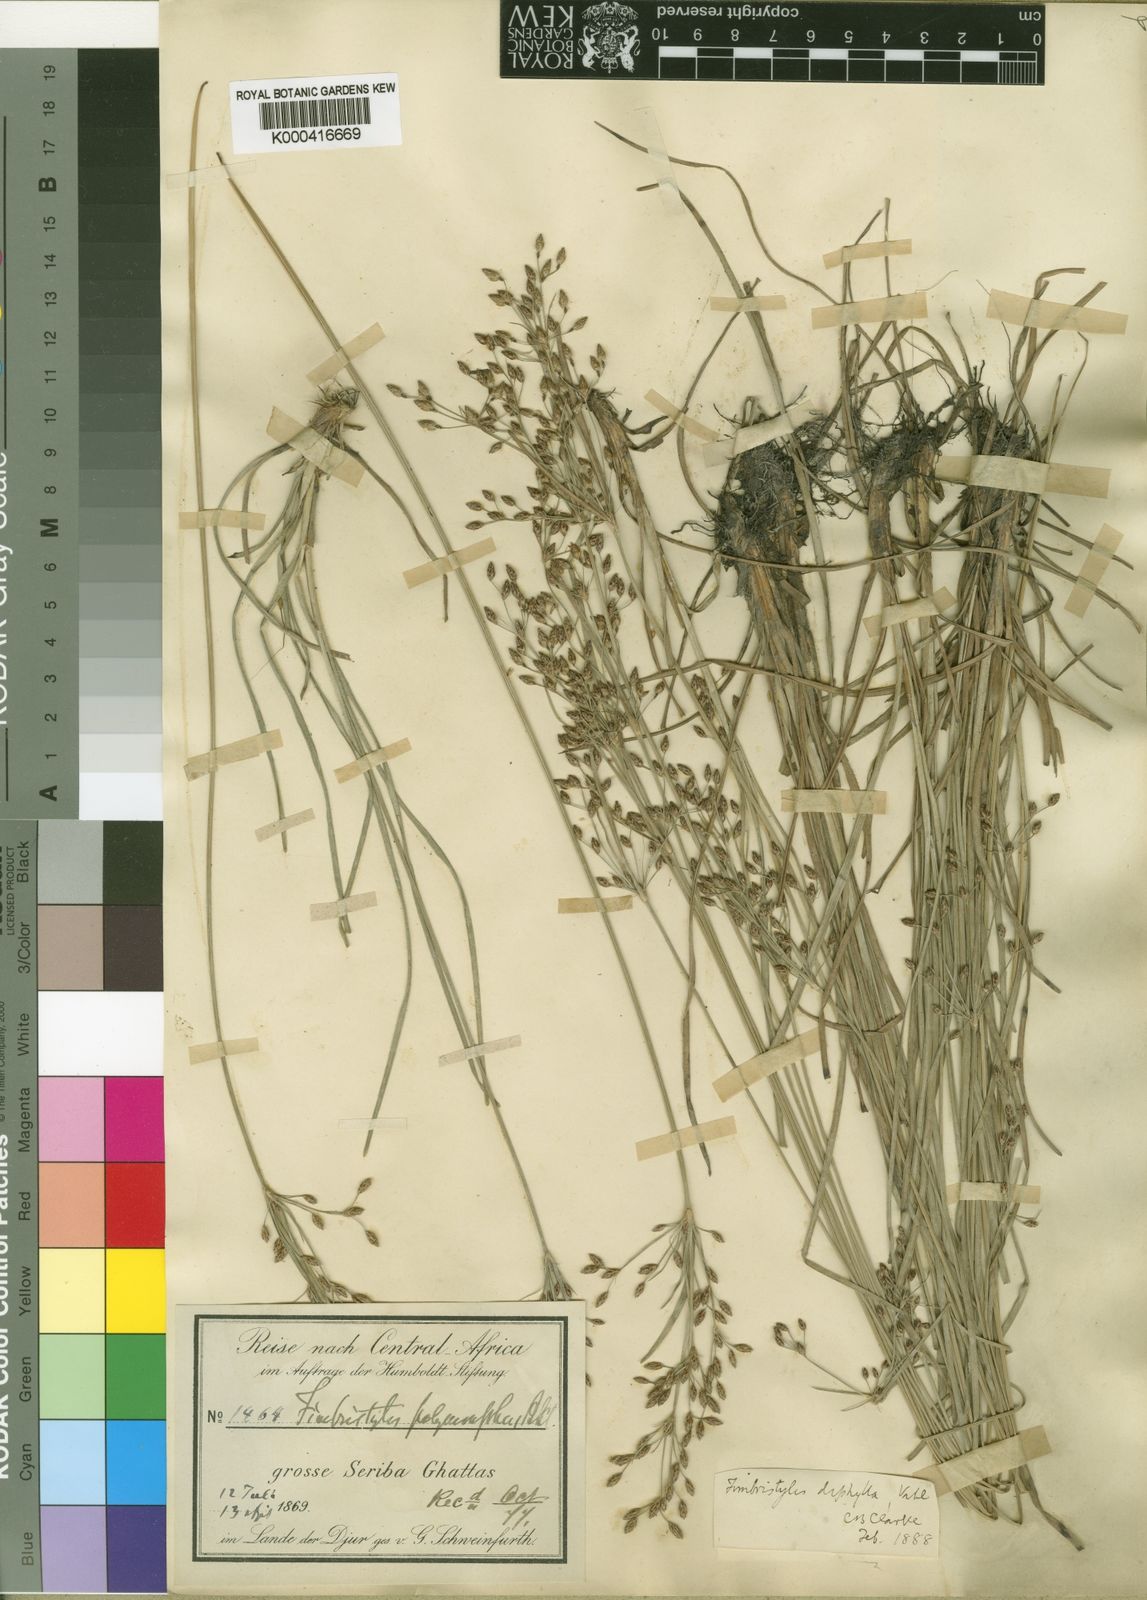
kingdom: Plantae
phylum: Tracheophyta
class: Liliopsida
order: Poales
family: Cyperaceae
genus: Fimbristylis
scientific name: Fimbristylis dichotoma
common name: Forked fimbry
